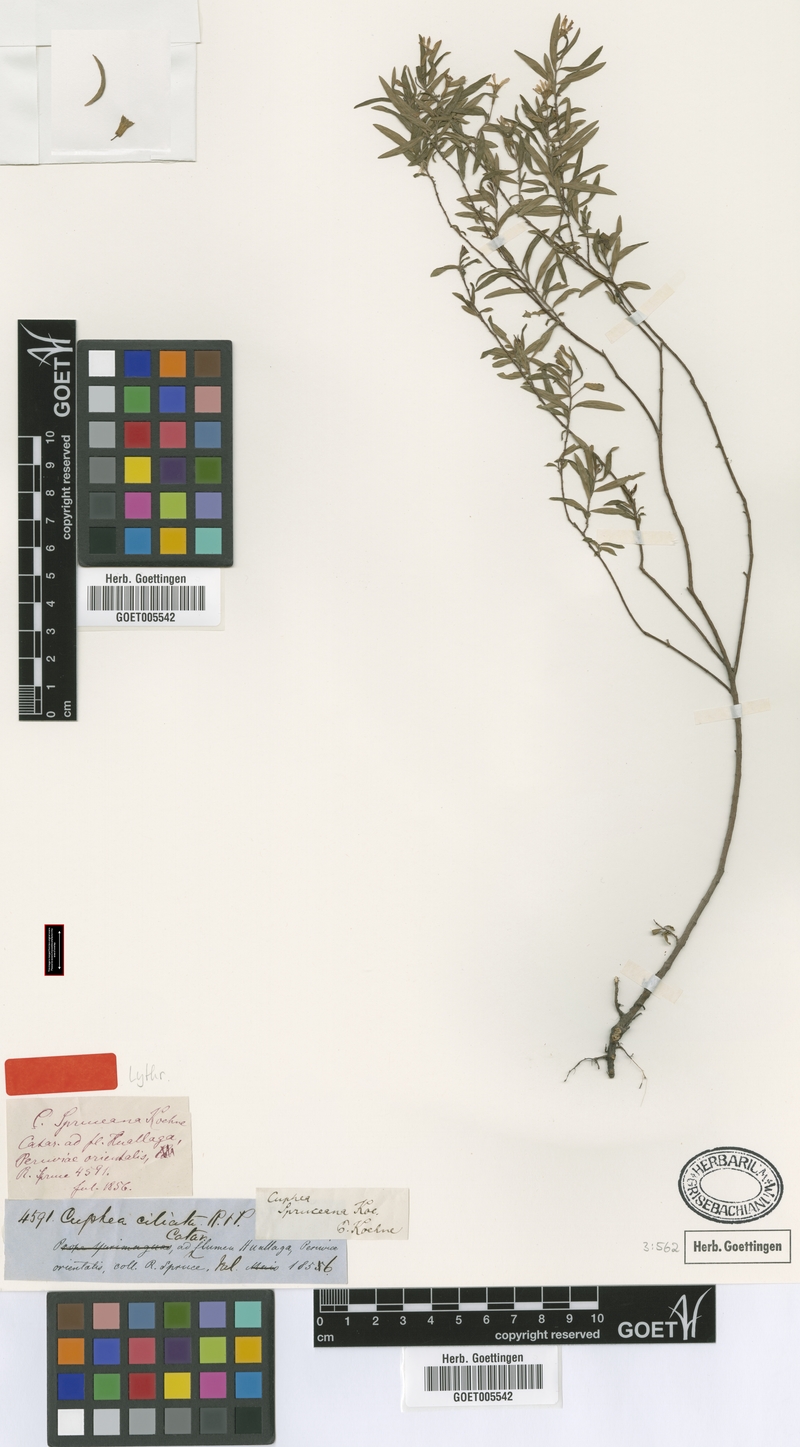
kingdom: Plantae
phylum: Tracheophyta
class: Magnoliopsida
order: Myrtales
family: Lythraceae
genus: Cuphea
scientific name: Cuphea spruceana
